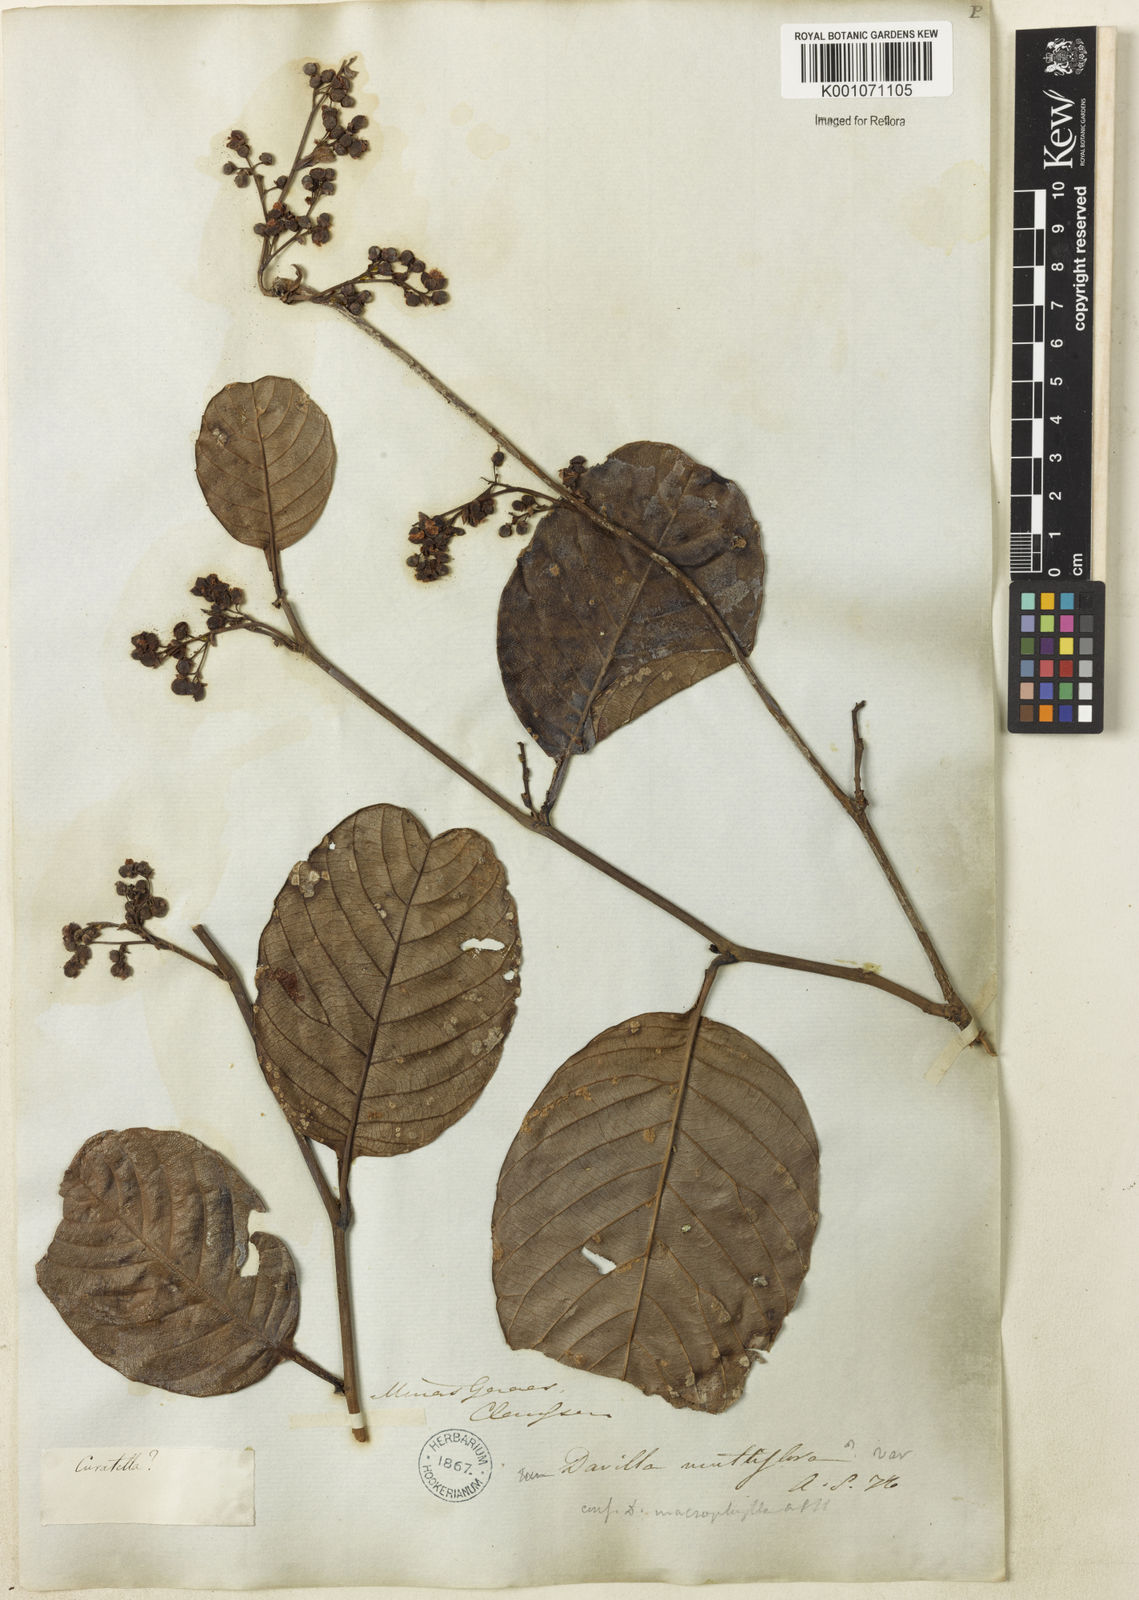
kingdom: Plantae
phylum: Tracheophyta
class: Magnoliopsida
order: Dilleniales
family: Dilleniaceae
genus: Davilla
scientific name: Davilla nitida
